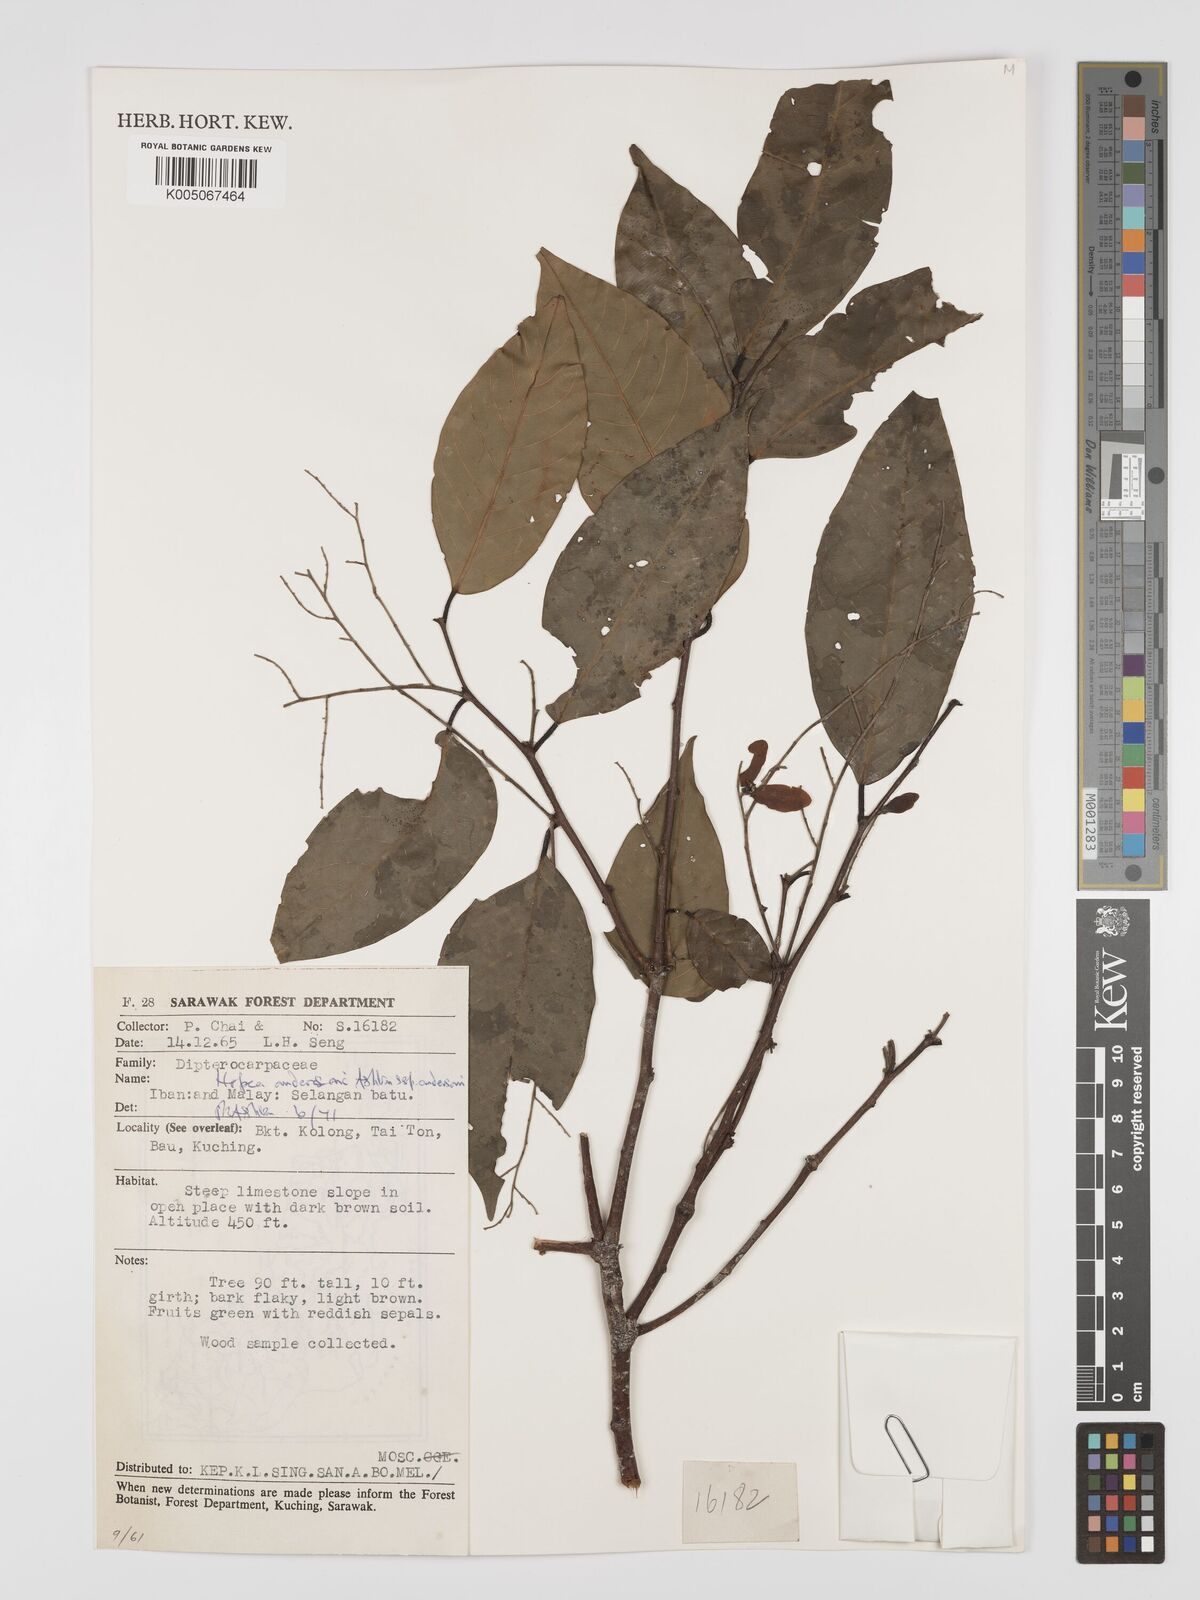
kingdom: Plantae
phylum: Tracheophyta
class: Magnoliopsida
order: Malvales
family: Dipterocarpaceae
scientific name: Dipterocarpaceae
